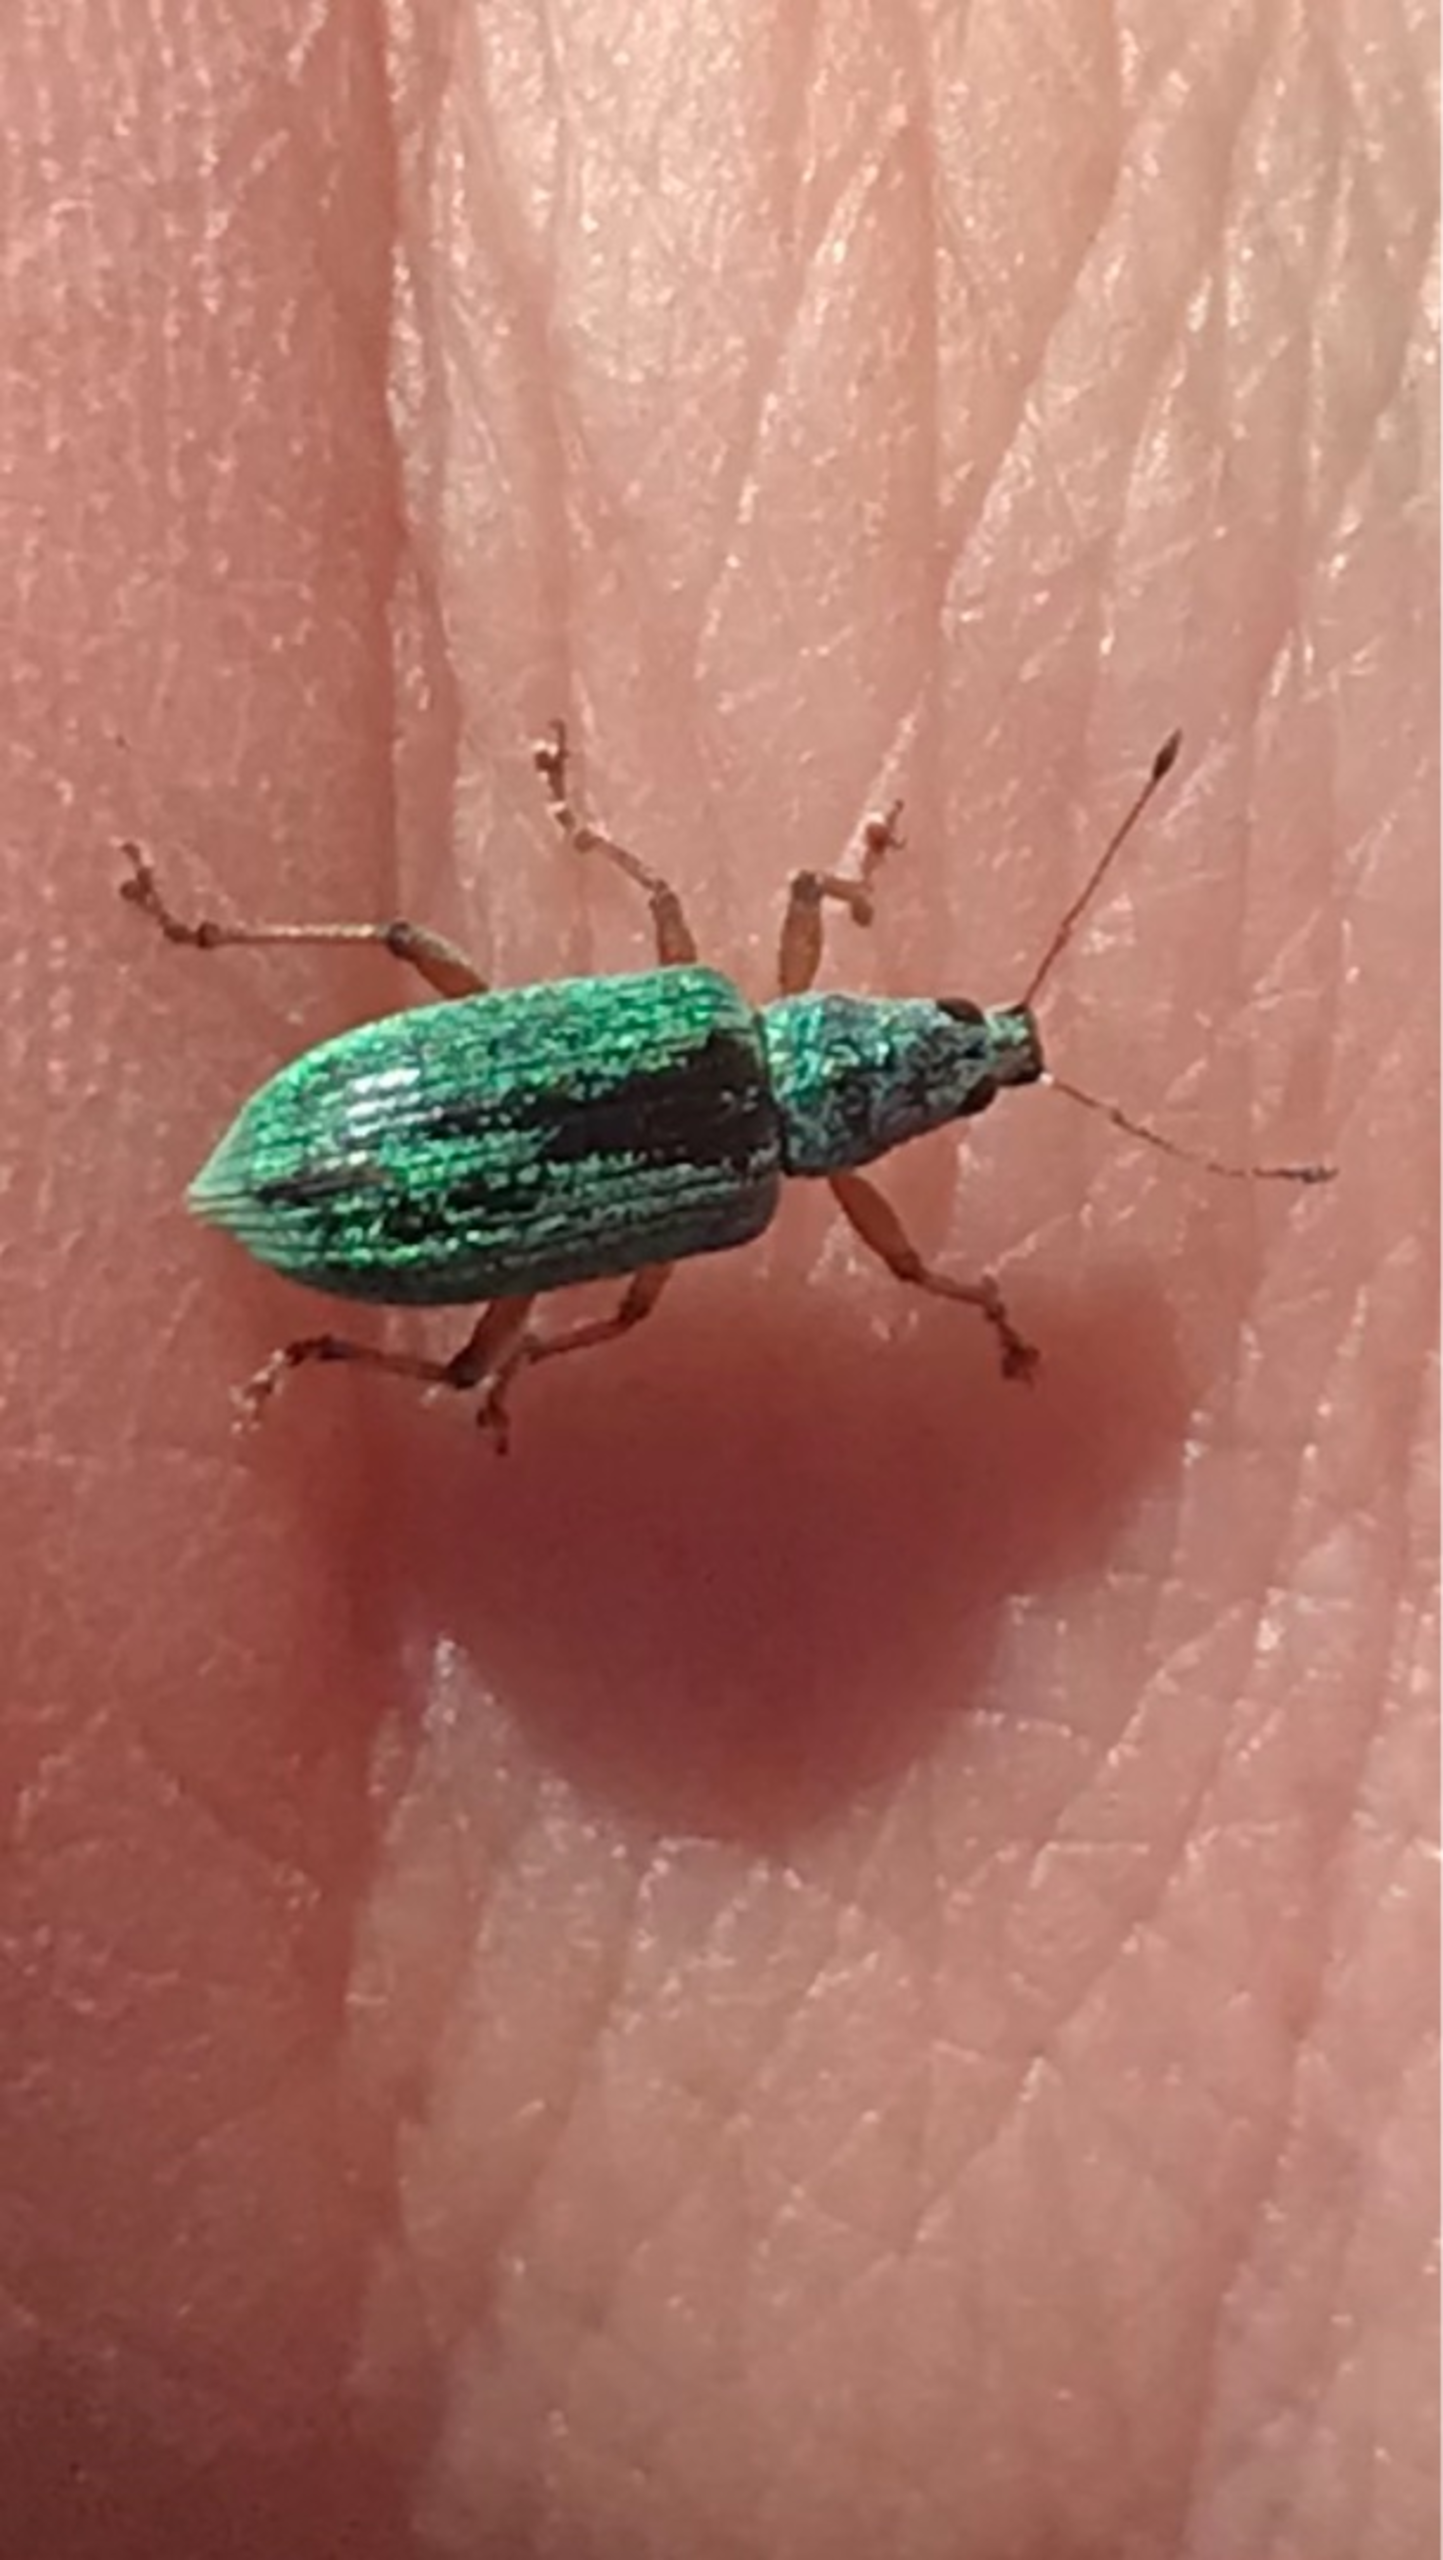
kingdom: Animalia
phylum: Arthropoda
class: Insecta
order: Coleoptera
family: Curculionidae
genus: Polydrusus
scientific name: Polydrusus formosus
